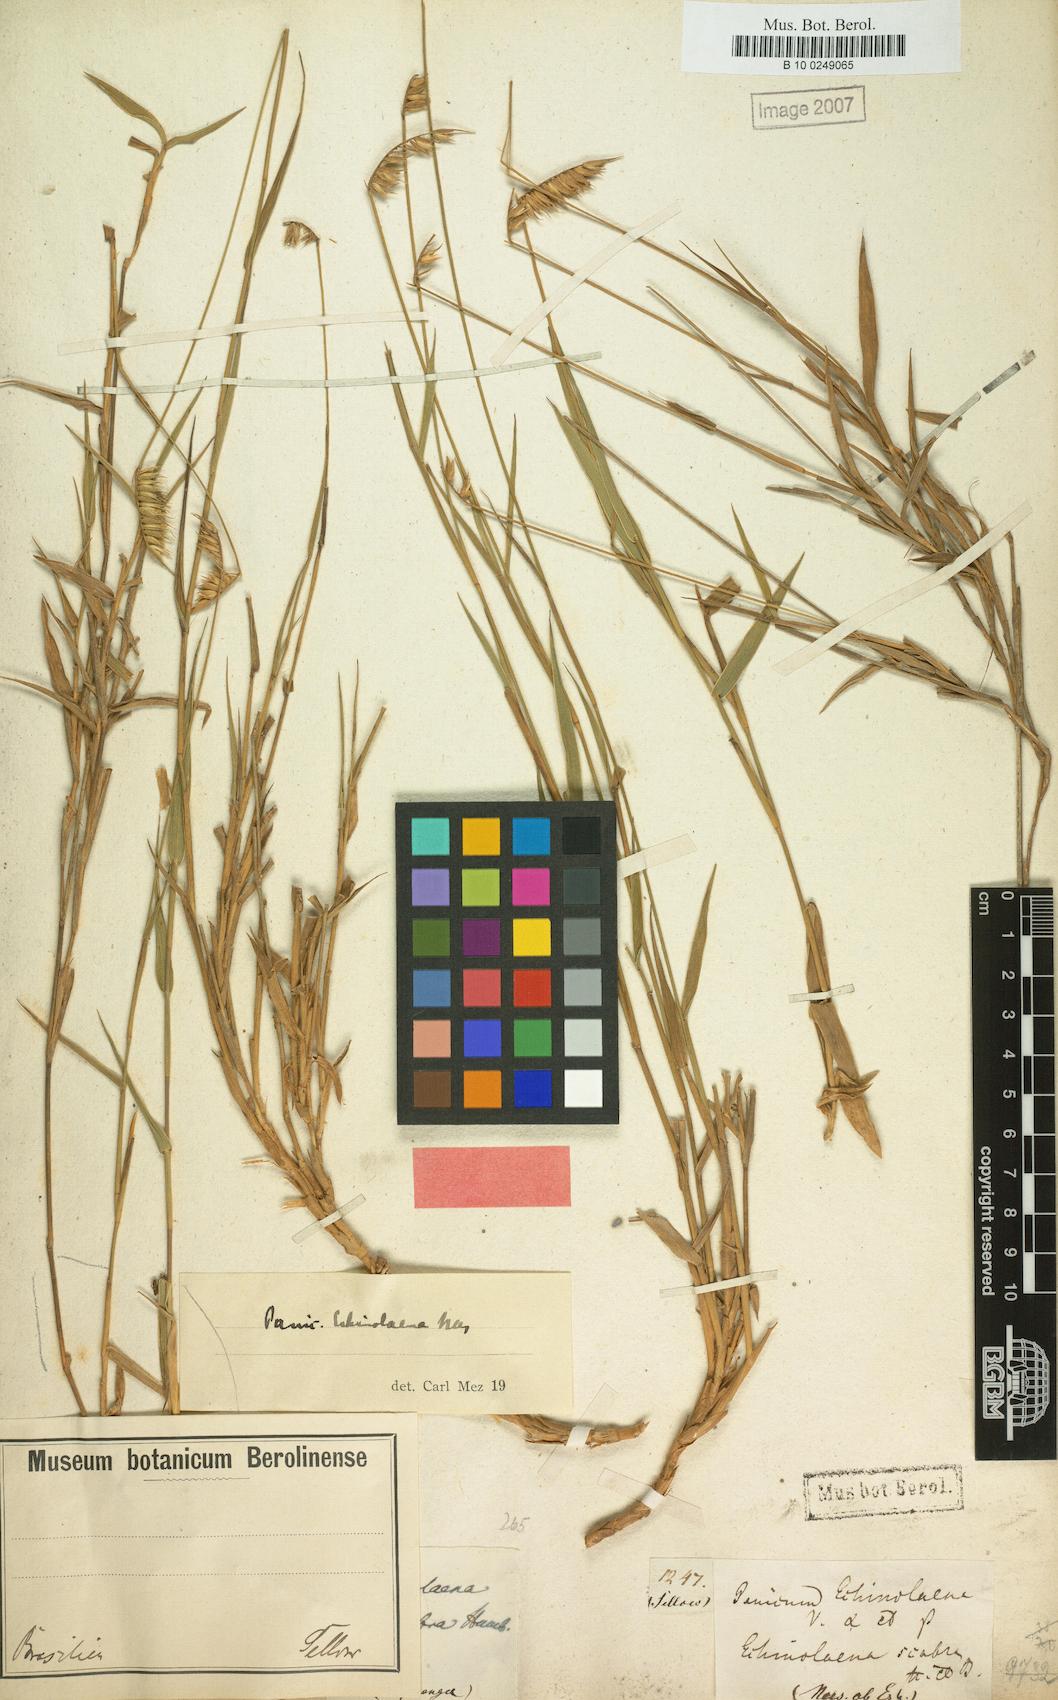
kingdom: Plantae
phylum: Tracheophyta
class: Liliopsida
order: Poales
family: Poaceae
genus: Echinolaena
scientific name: Echinolaena inflexa
